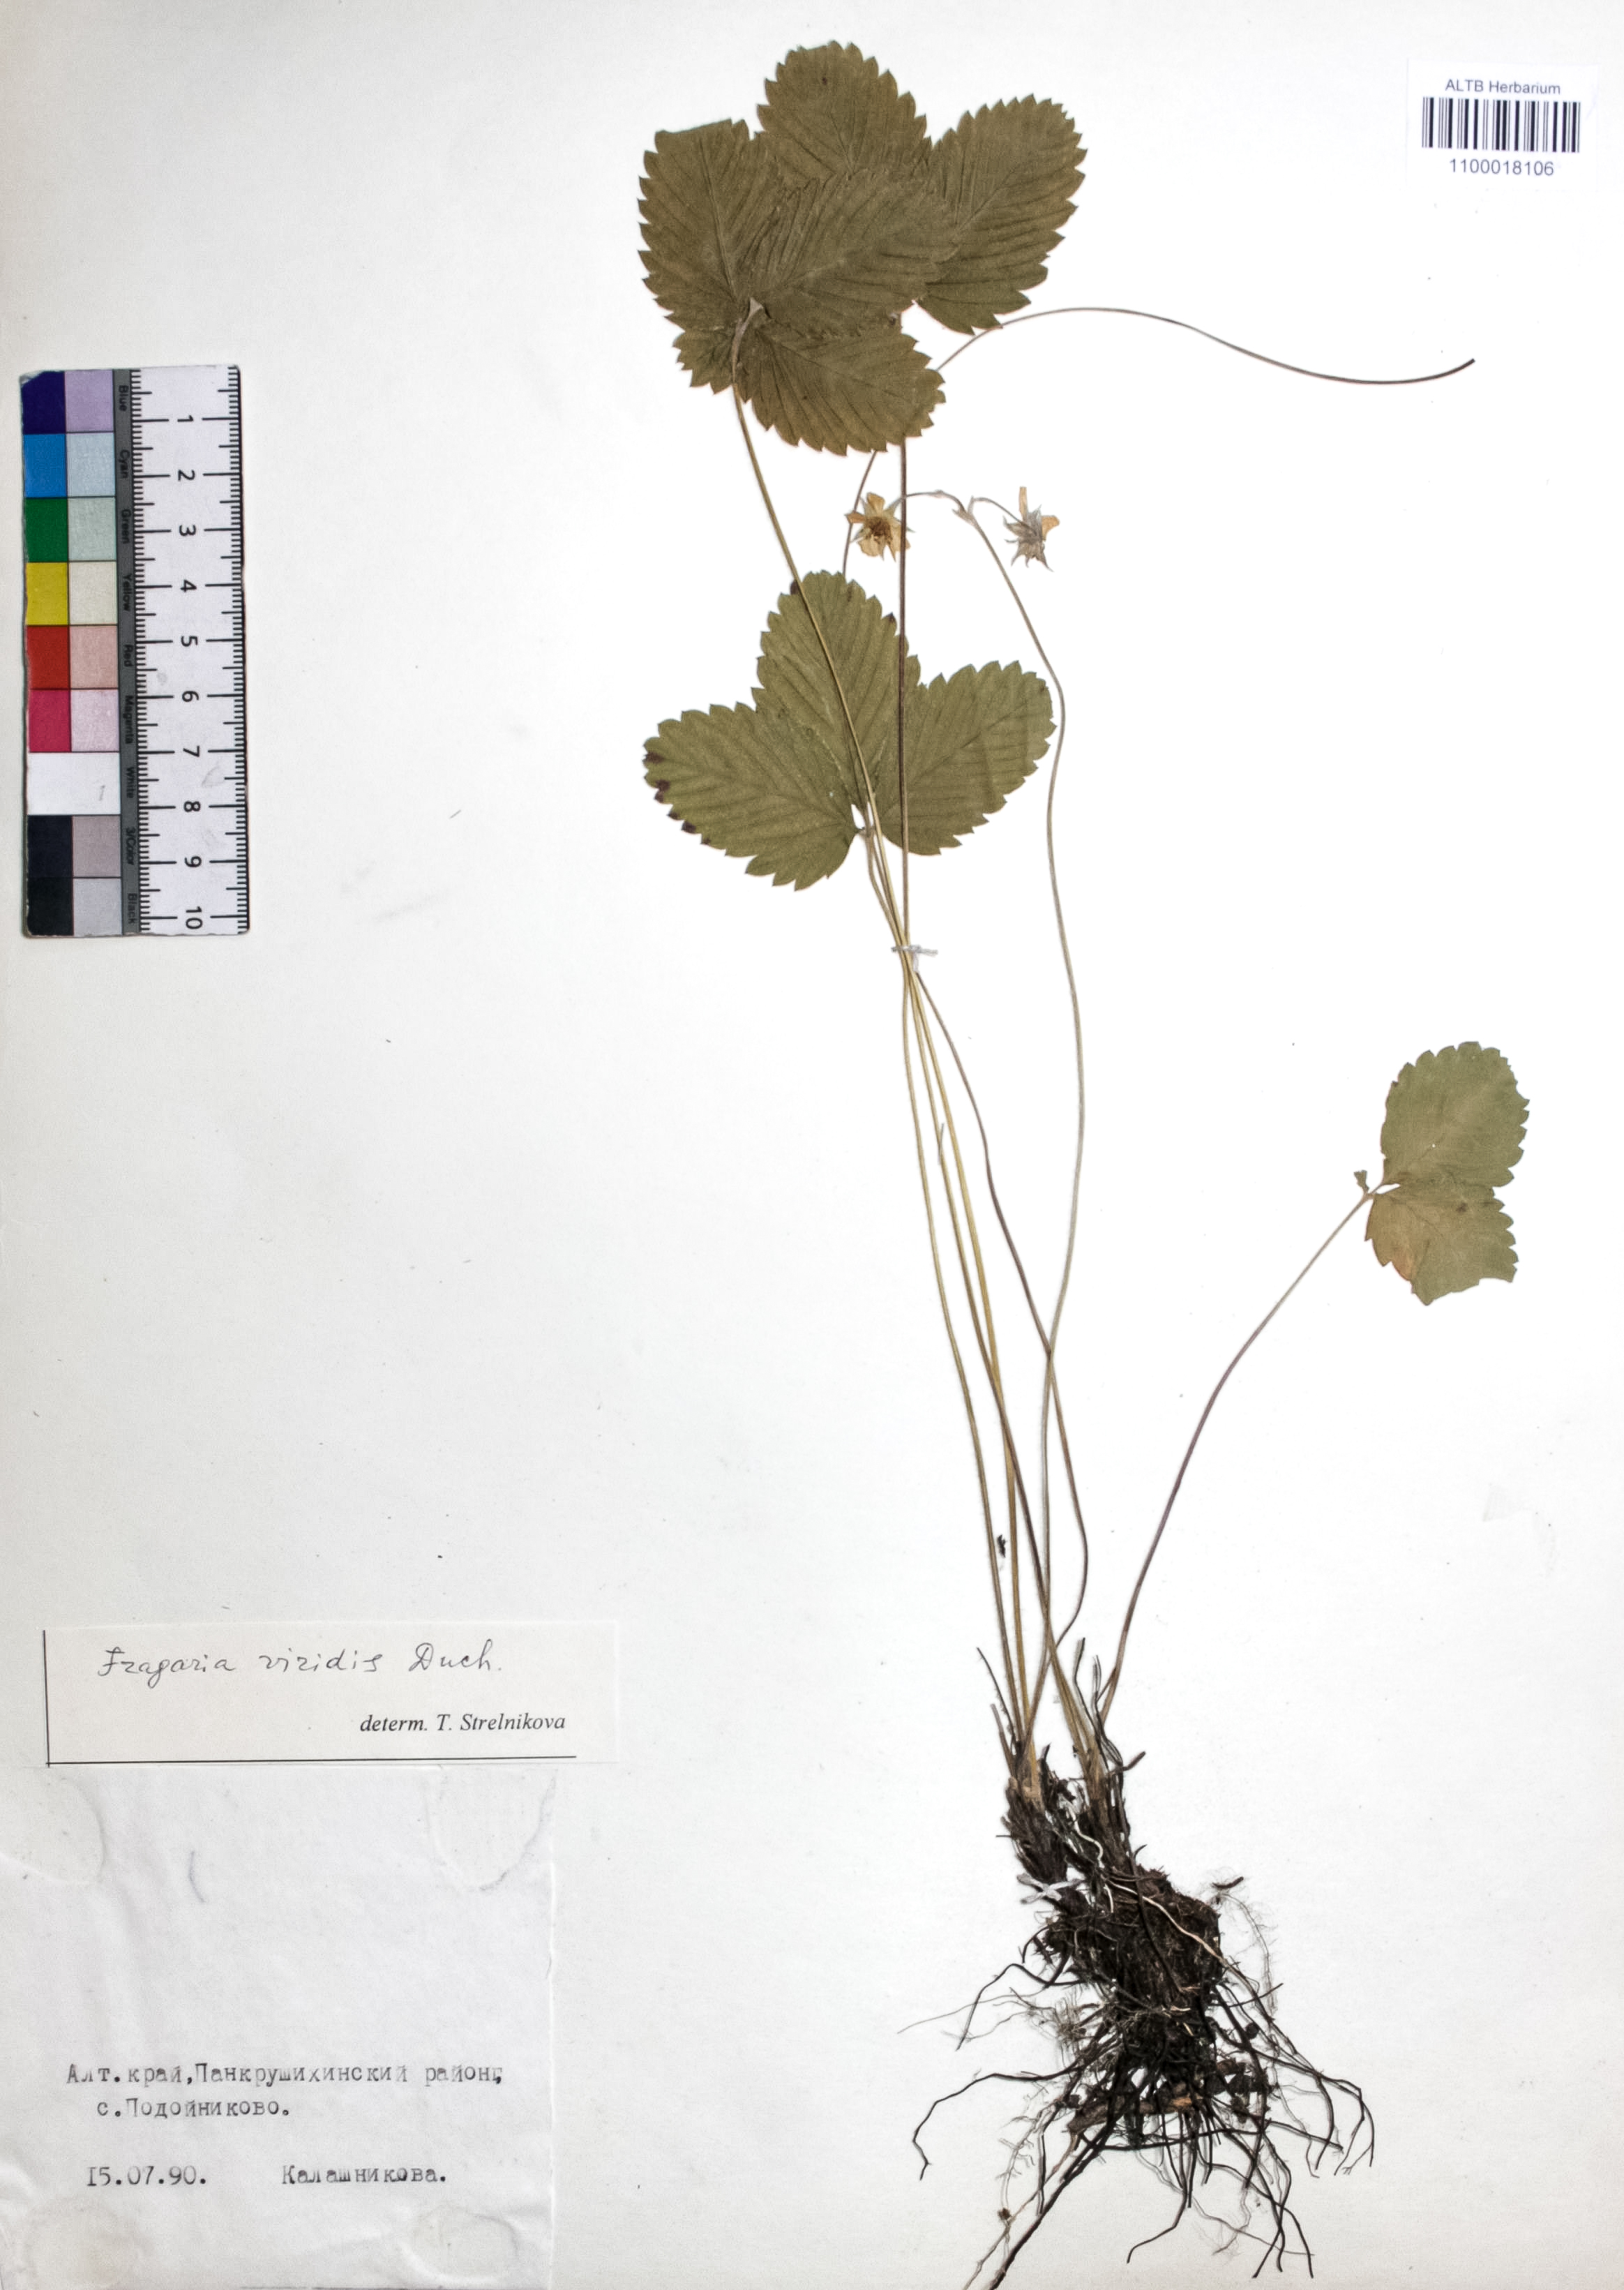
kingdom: Plantae
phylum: Tracheophyta
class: Magnoliopsida
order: Rosales
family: Rosaceae
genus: Fragaria
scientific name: Fragaria viridis
